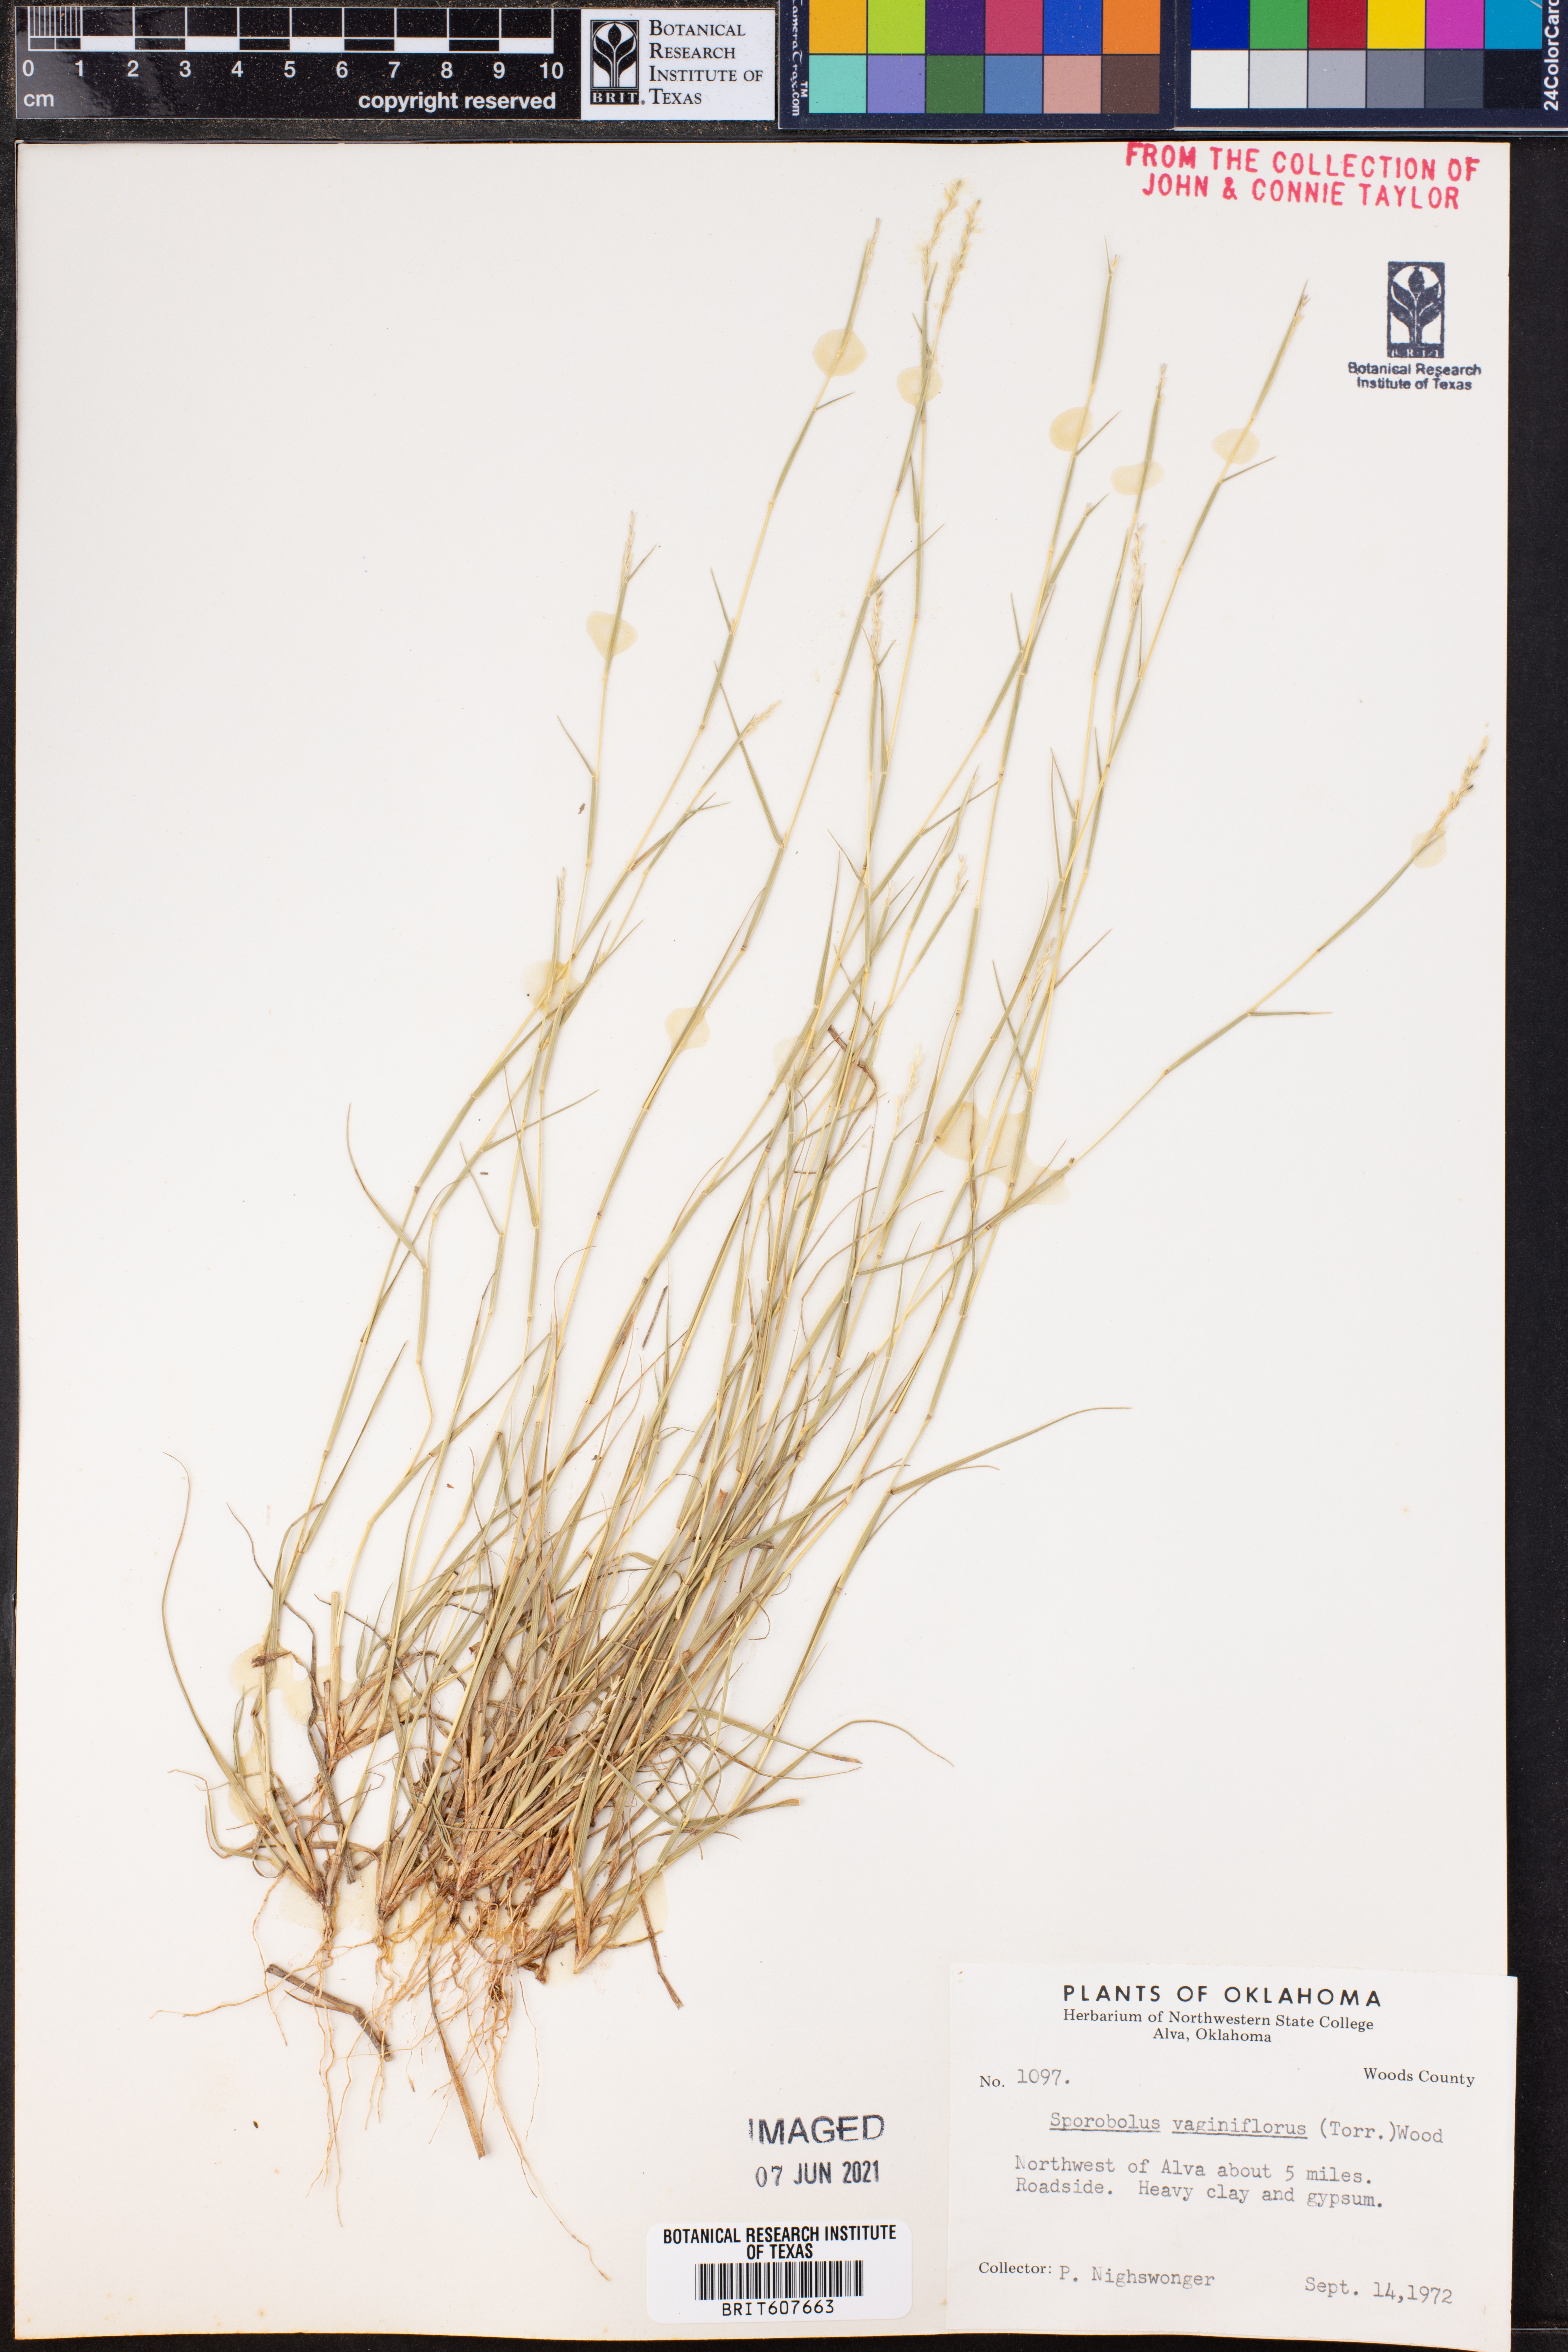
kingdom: Plantae
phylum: Tracheophyta
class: Liliopsida
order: Poales
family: Poaceae
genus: Sporobolus
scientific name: Sporobolus vaginiflorus
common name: Poverty dropseed
